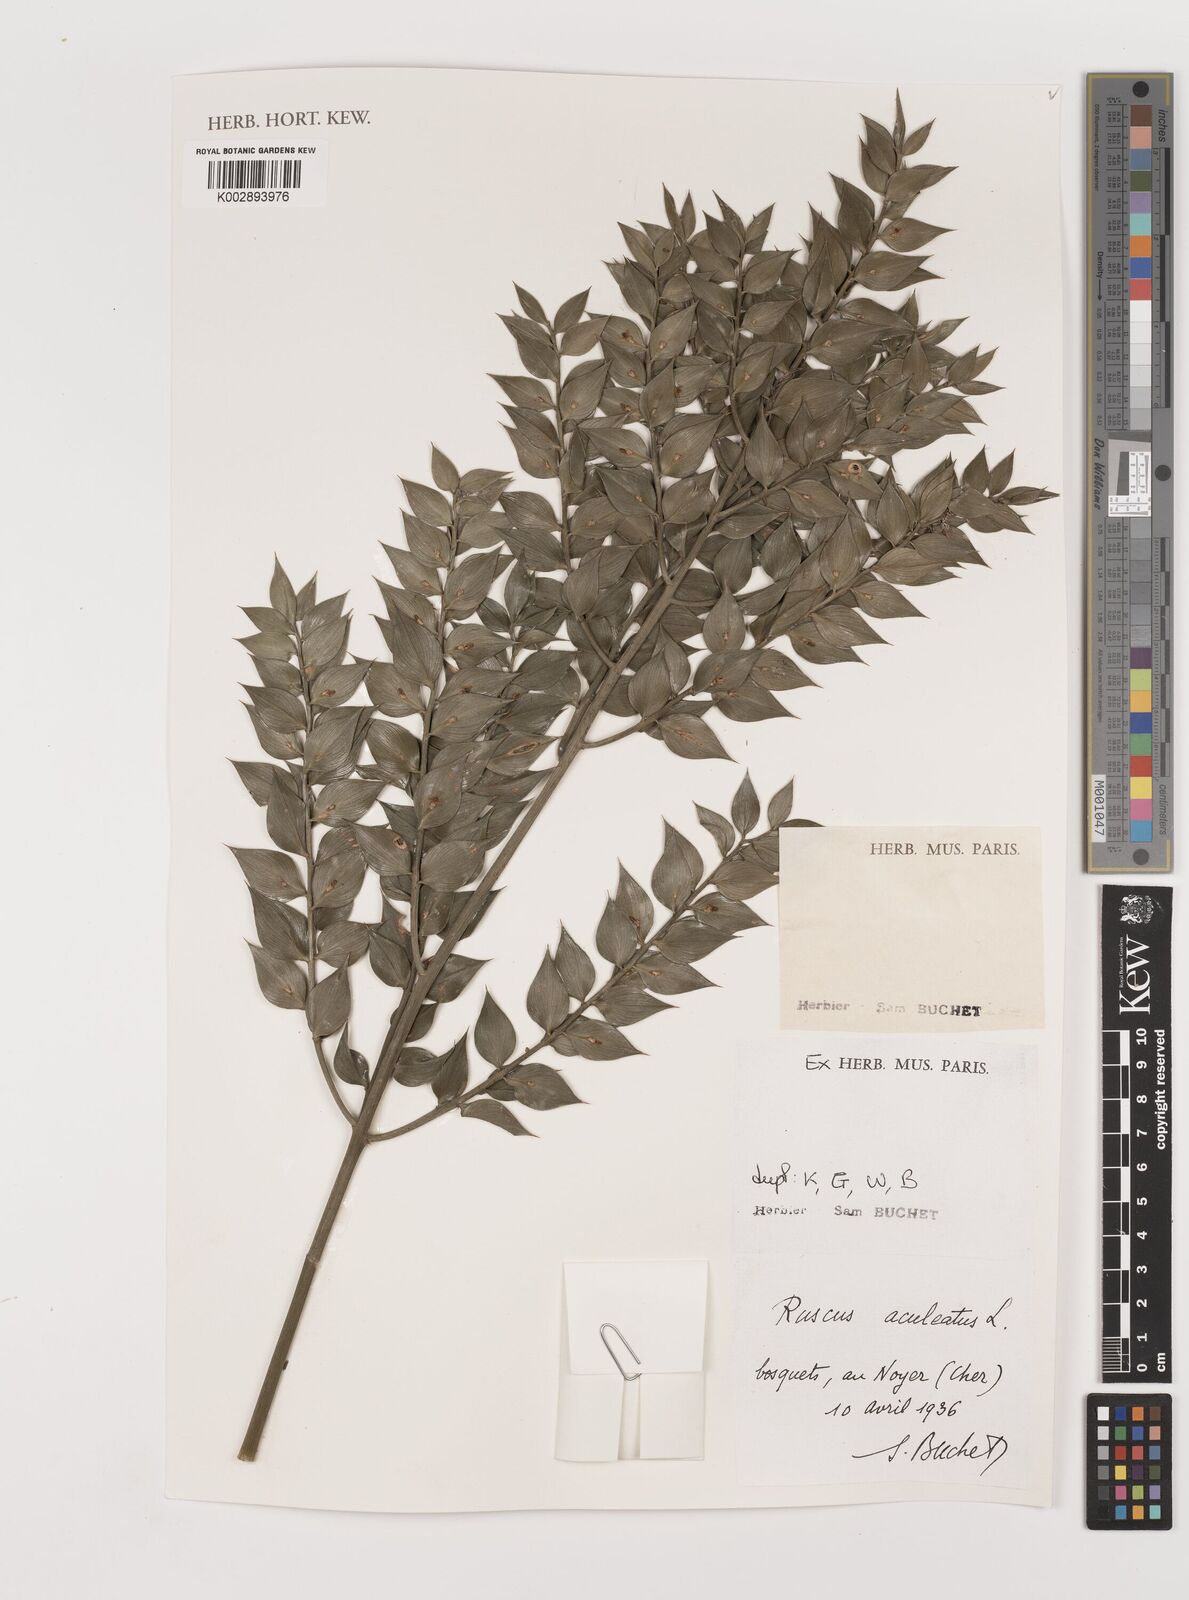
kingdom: Plantae
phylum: Tracheophyta
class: Liliopsida
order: Asparagales
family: Asparagaceae
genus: Ruscus
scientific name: Ruscus aculeatus
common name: Butcher's-broom
